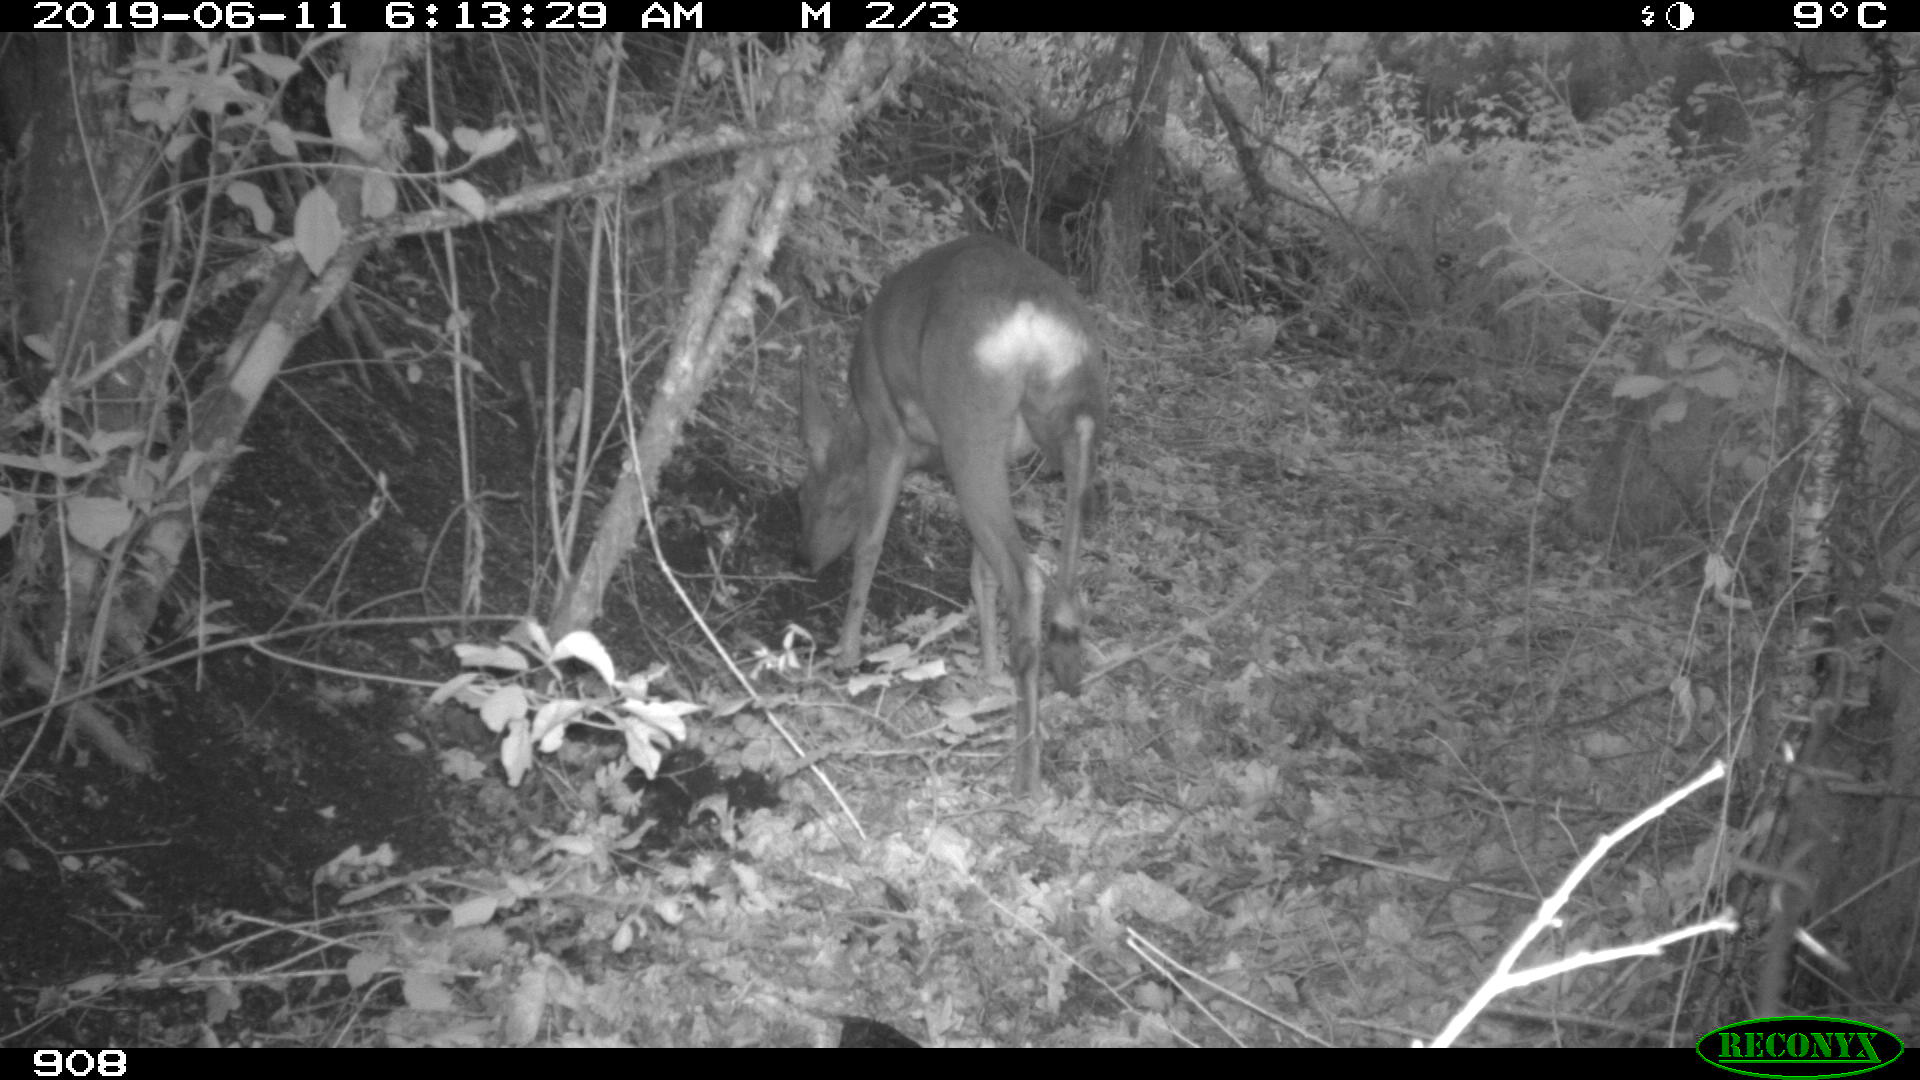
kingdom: Animalia
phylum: Chordata
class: Mammalia
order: Artiodactyla
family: Cervidae
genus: Capreolus
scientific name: Capreolus capreolus
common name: Western roe deer
